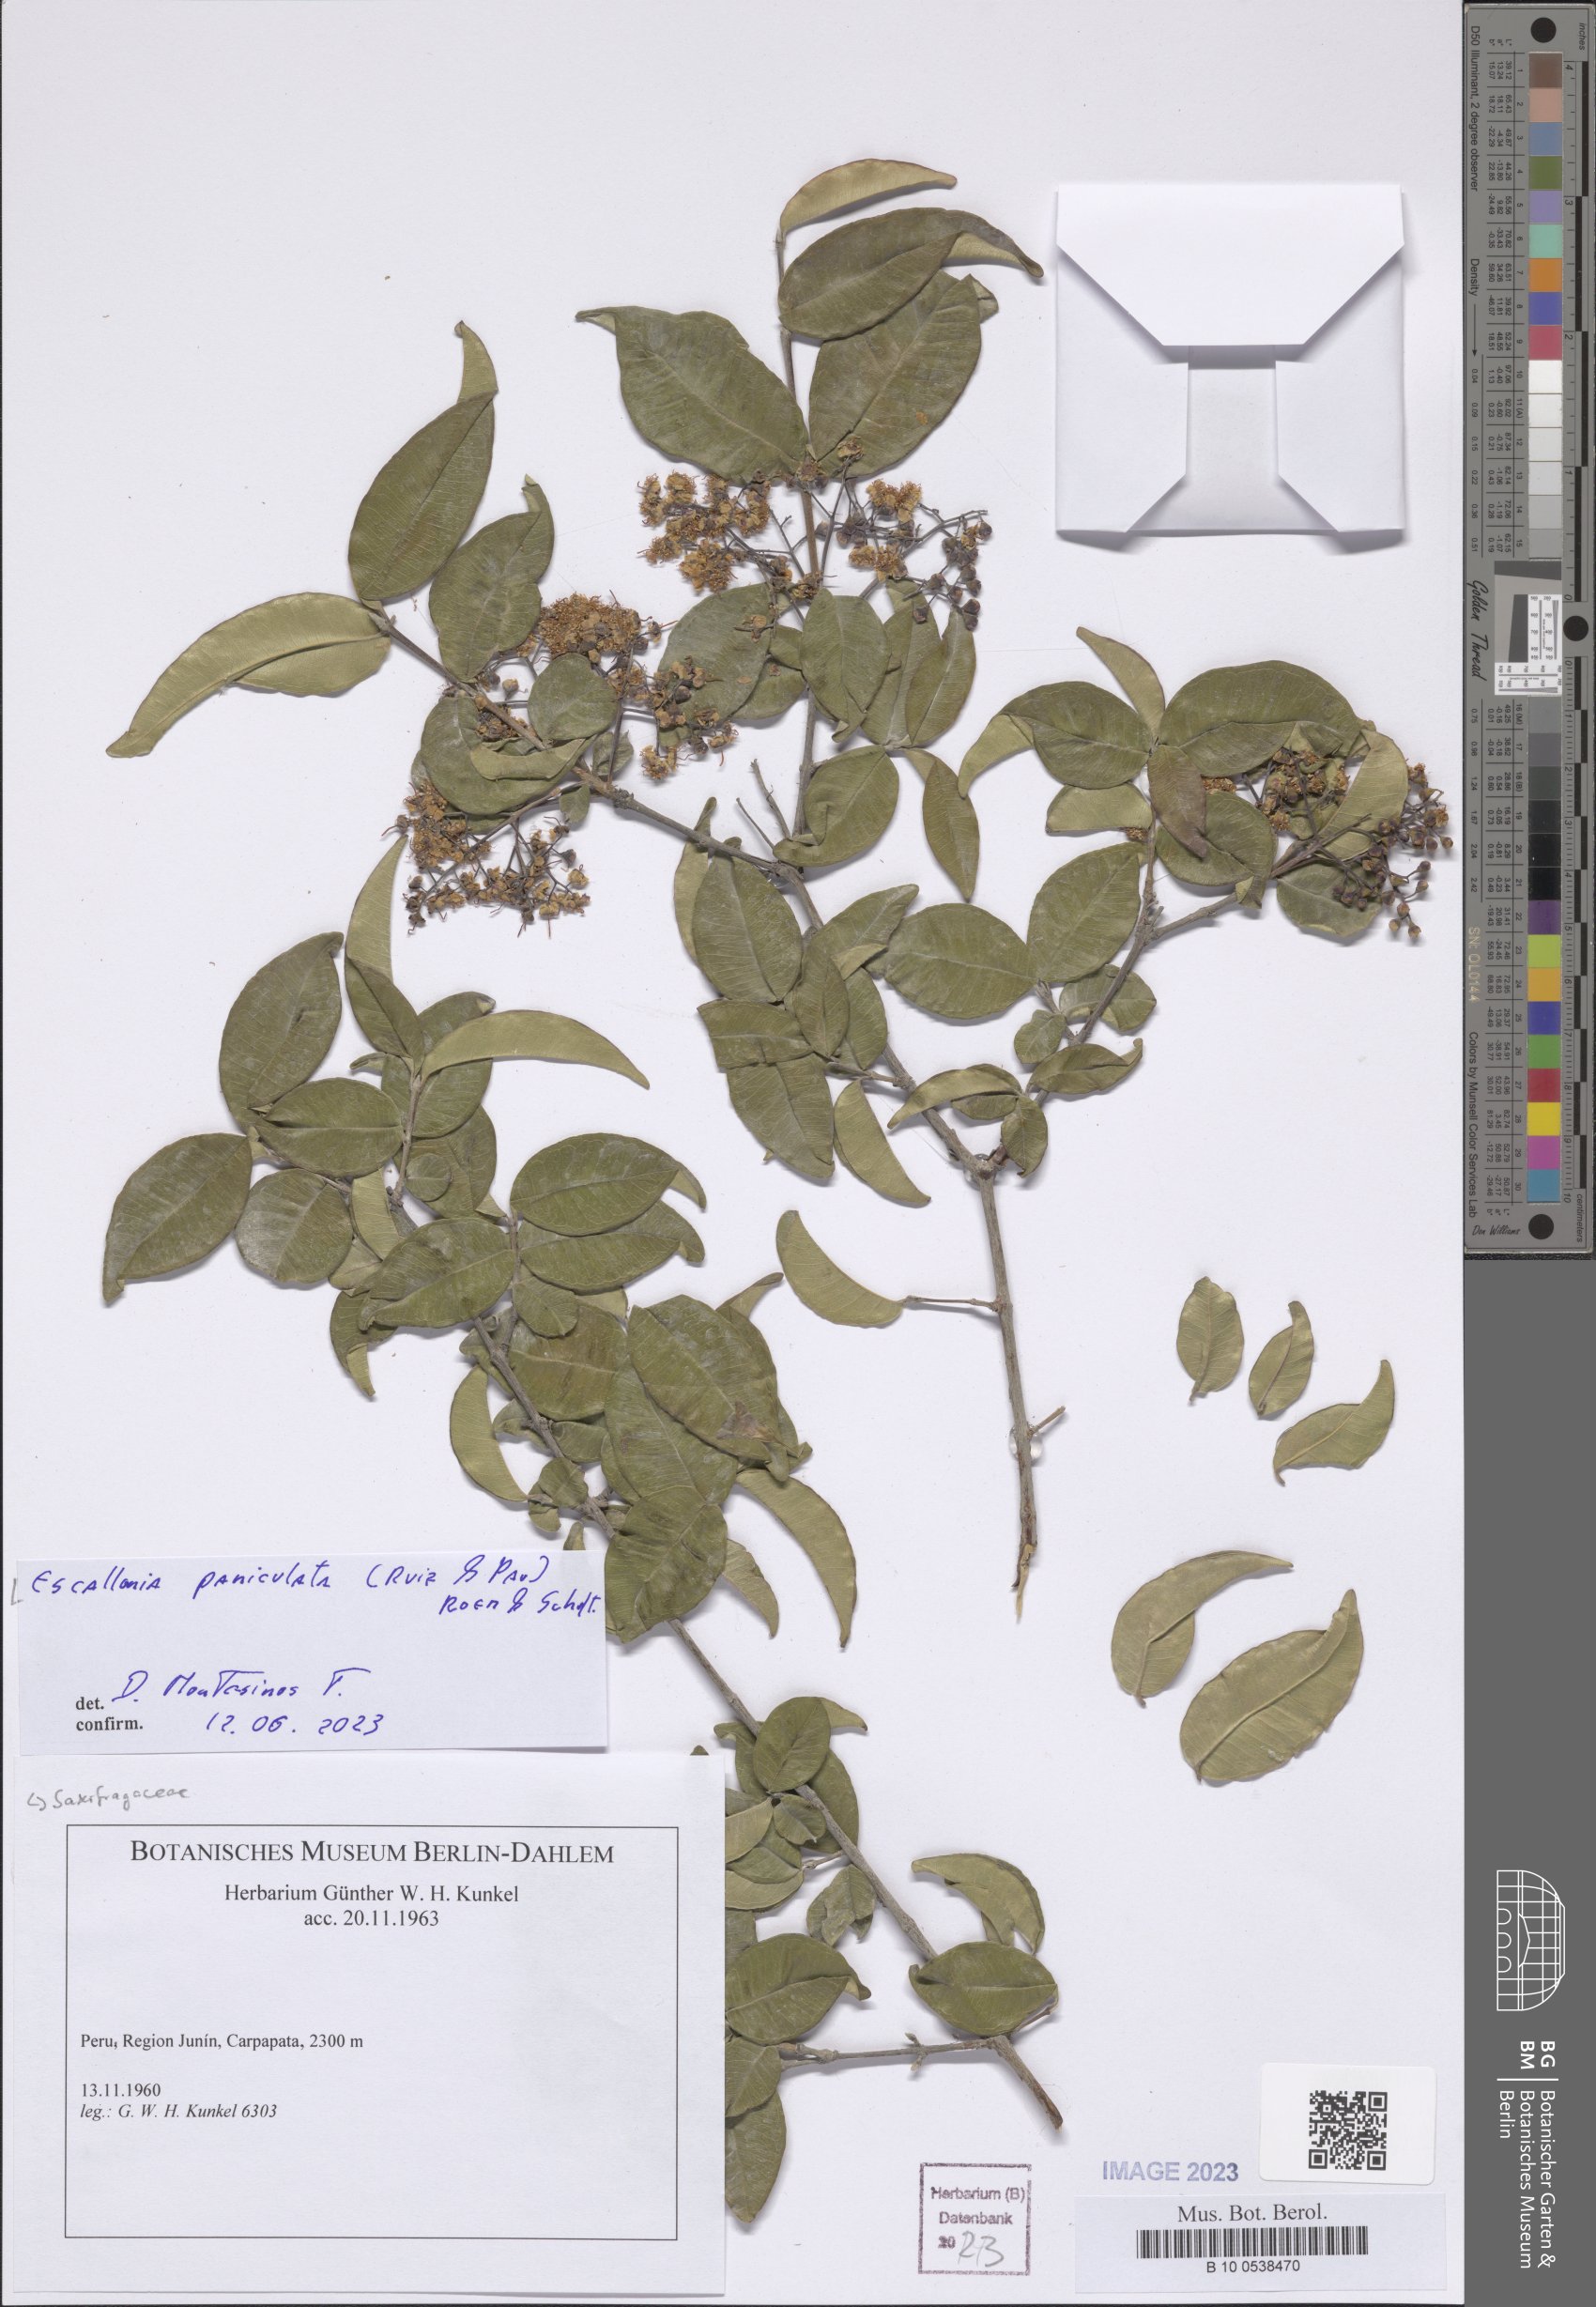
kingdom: Plantae
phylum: Tracheophyta
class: Magnoliopsida
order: Escalloniales
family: Escalloniaceae
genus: Escallonia
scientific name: Escallonia paniculata
